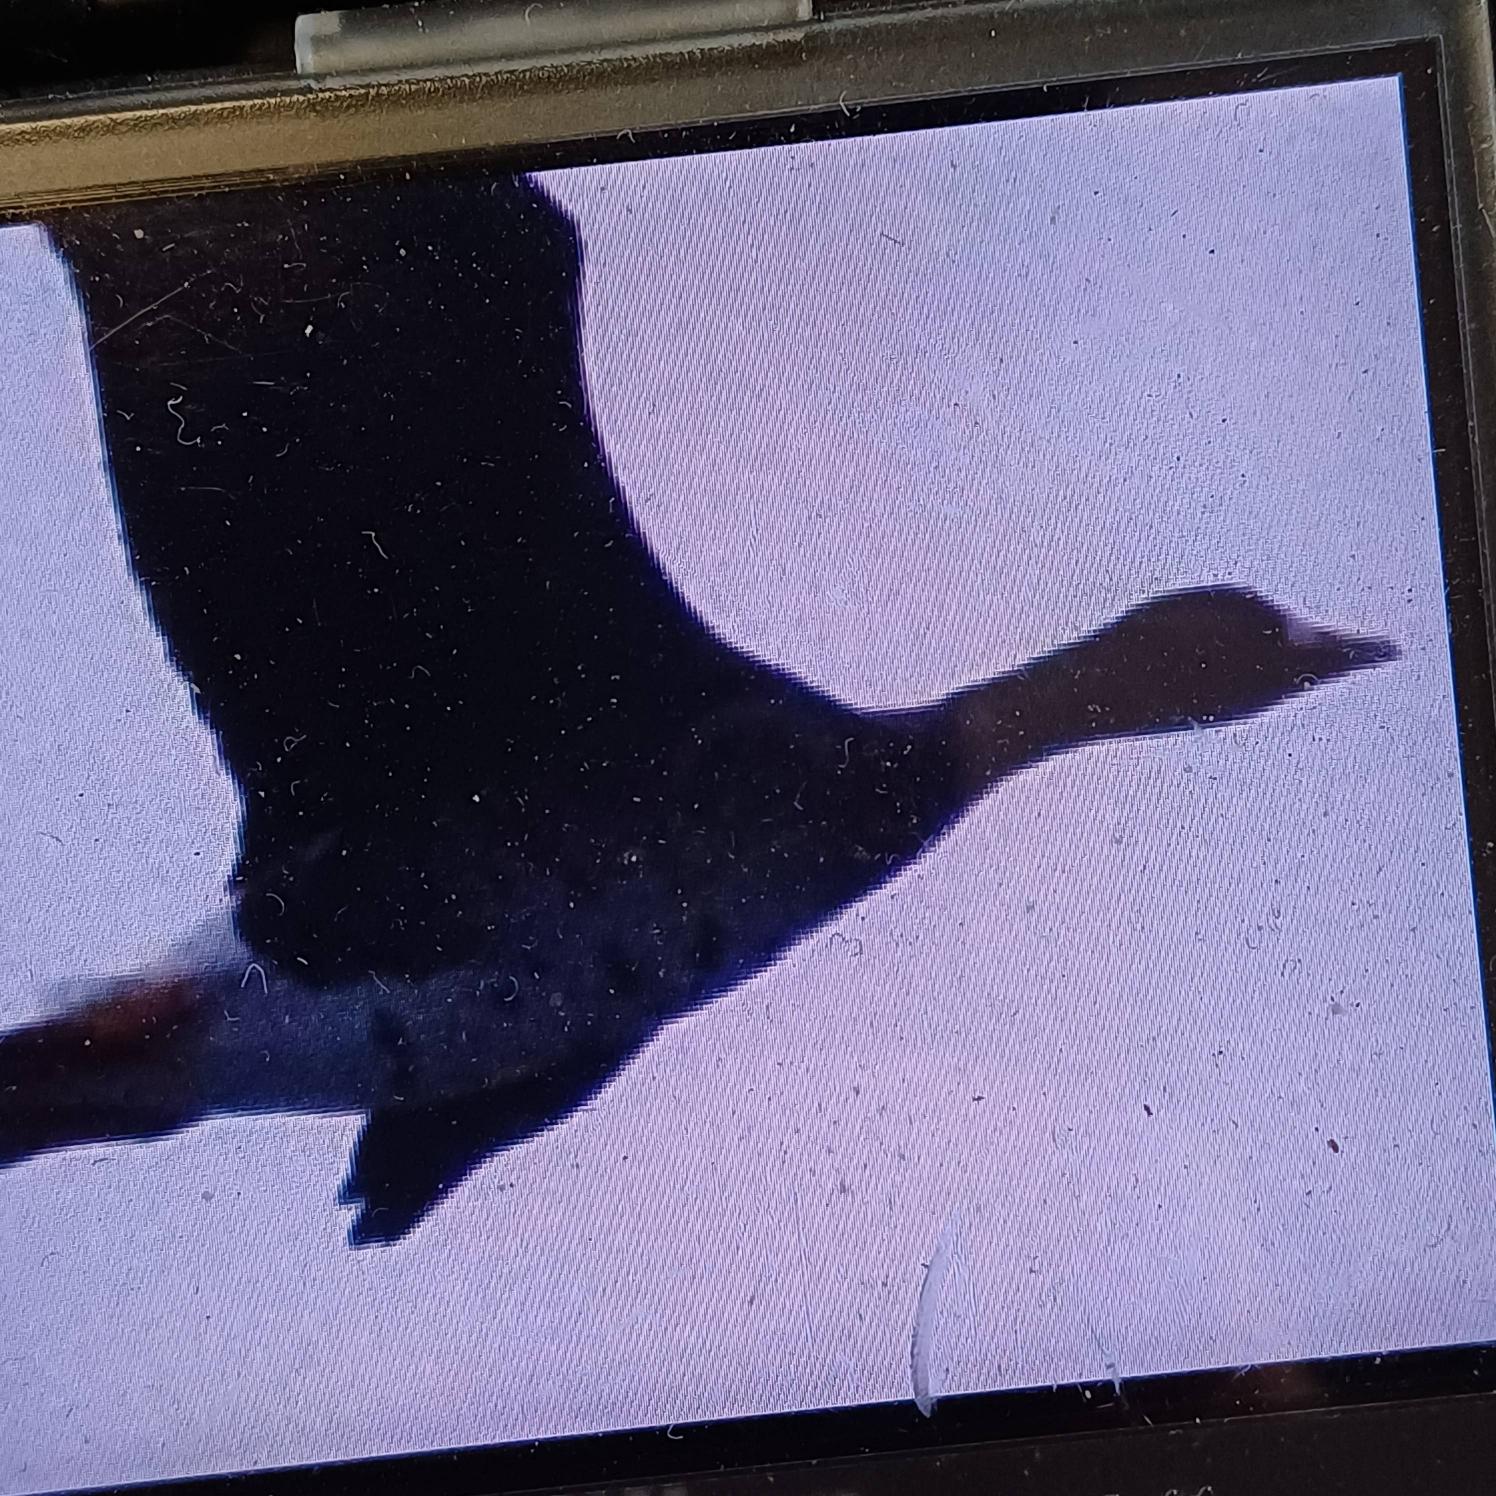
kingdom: Animalia
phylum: Chordata
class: Aves
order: Anseriformes
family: Anatidae
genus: Anser
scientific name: Anser albifrons
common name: Blisgås
